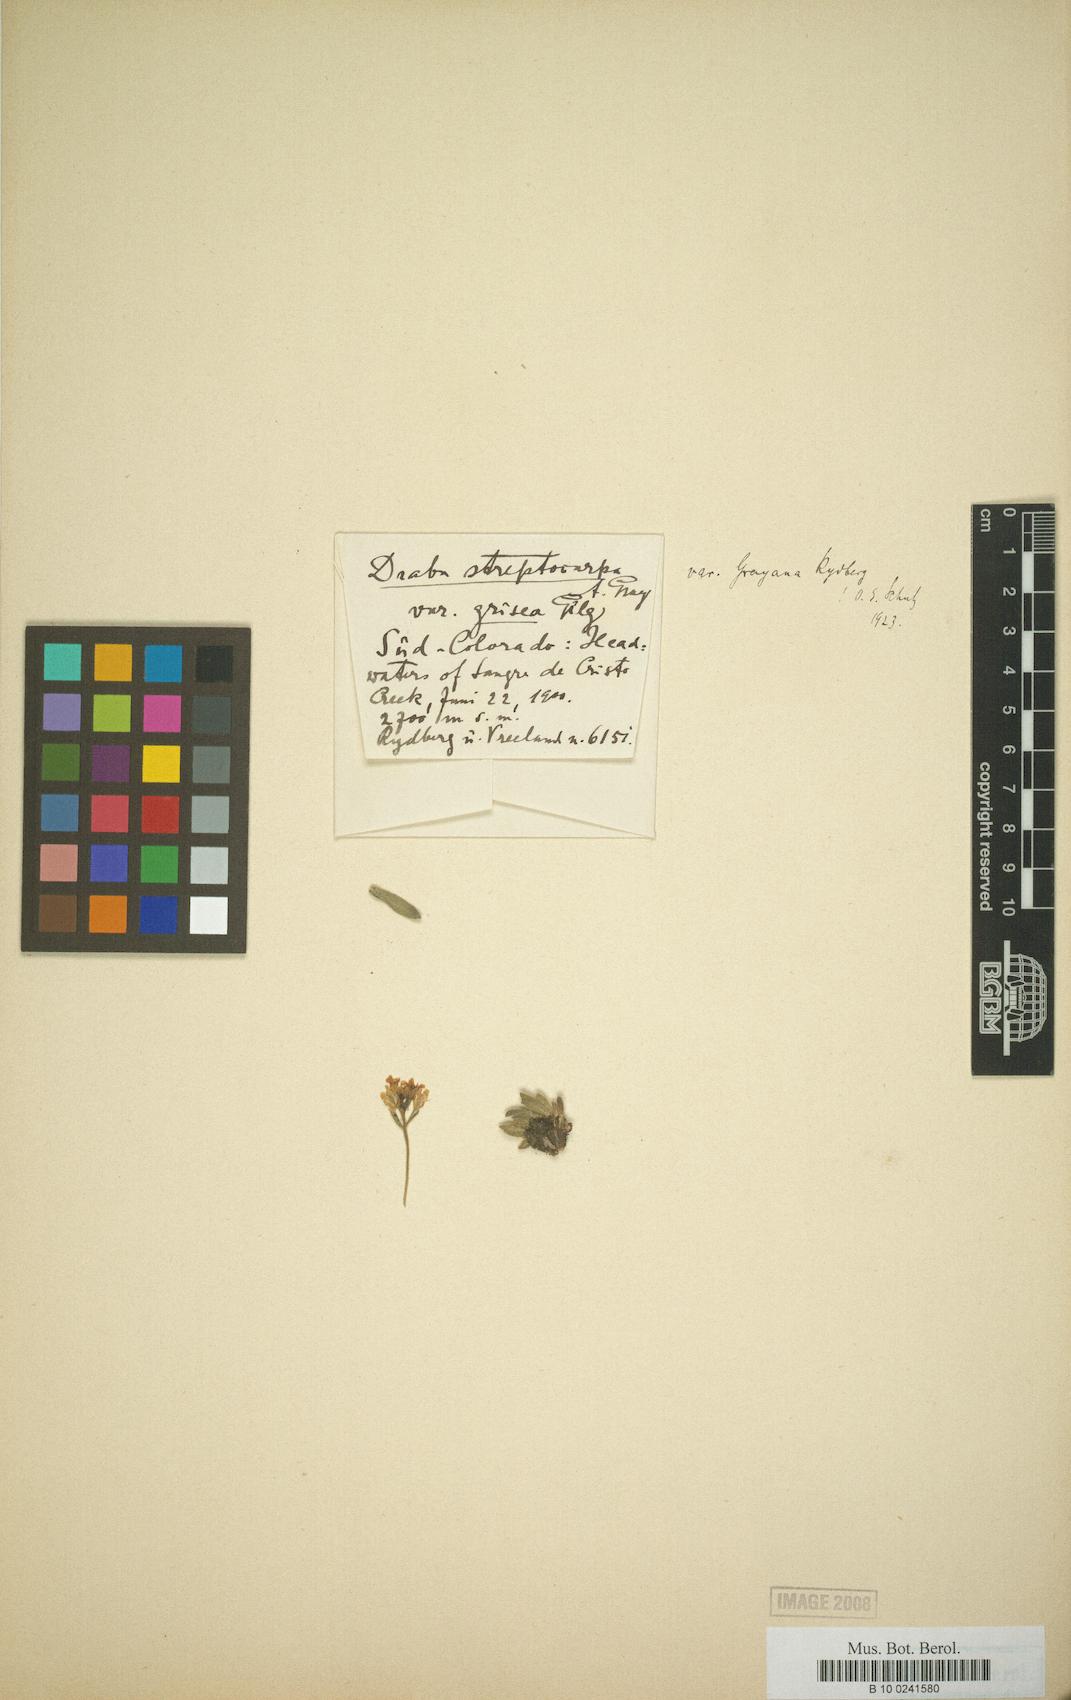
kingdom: Plantae
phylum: Tracheophyta
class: Magnoliopsida
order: Brassicales
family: Brassicaceae
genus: Draba
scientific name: Draba grayana
